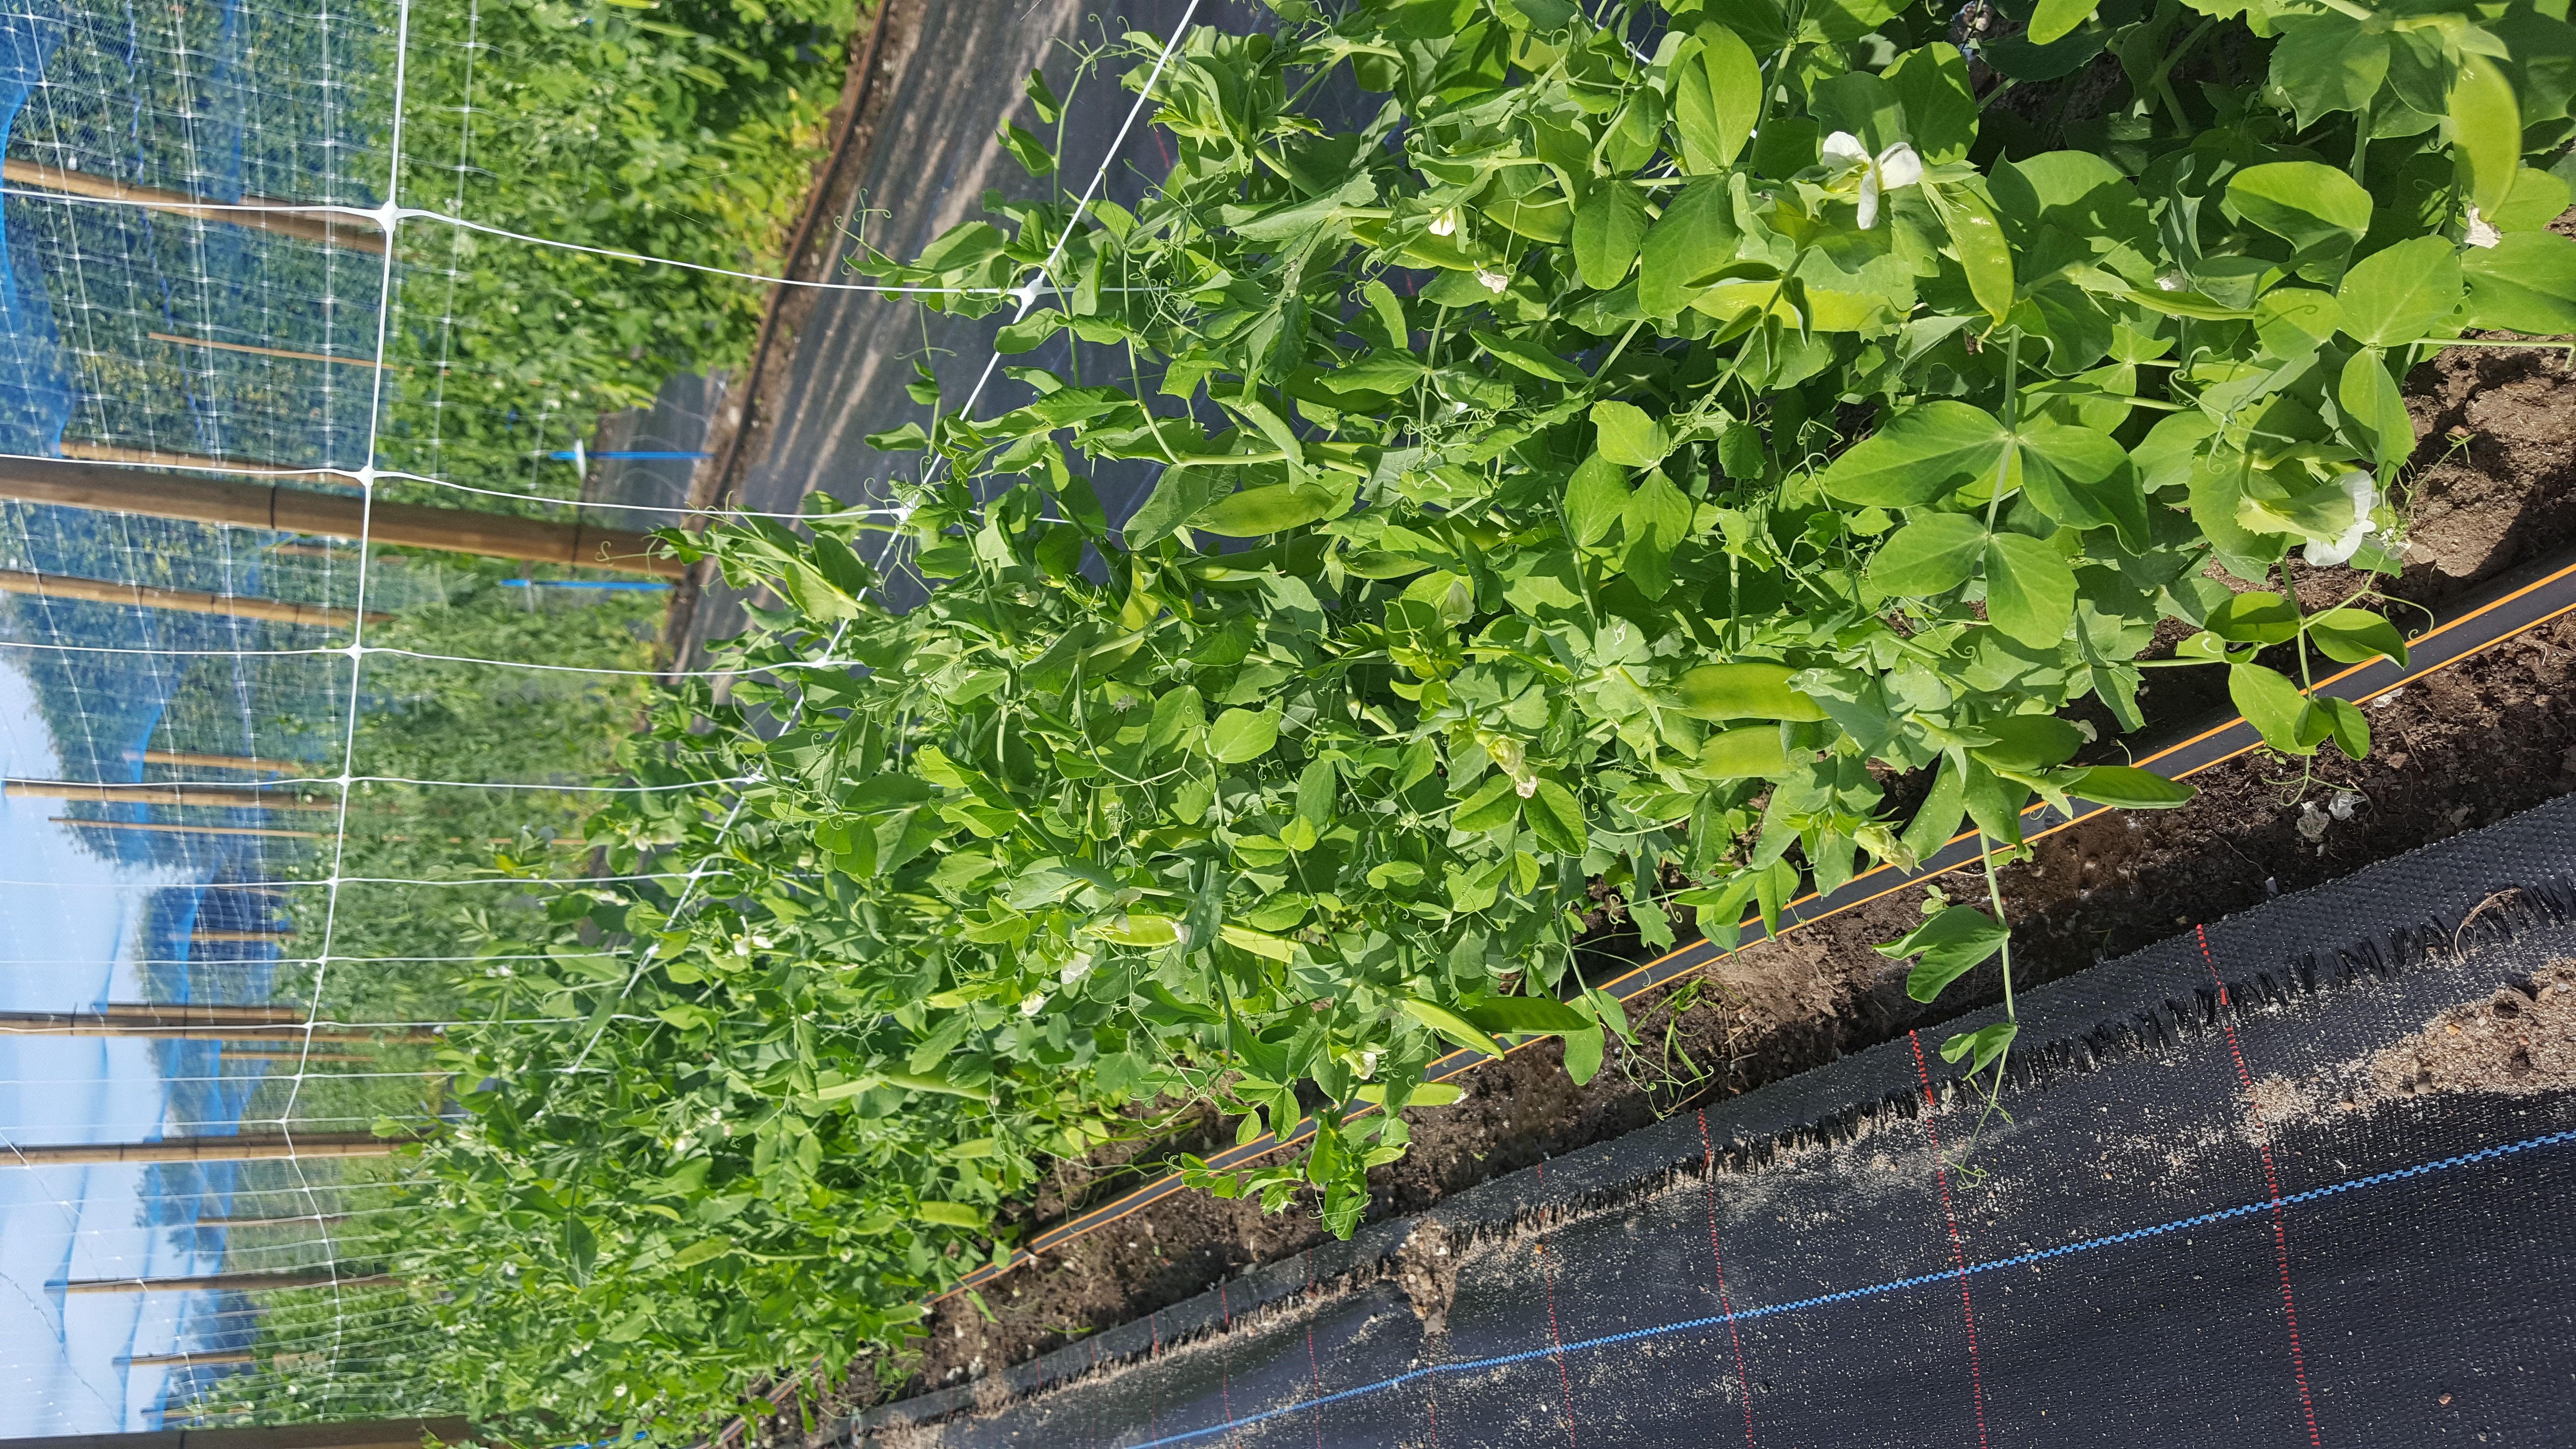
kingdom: Plantae
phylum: Tracheophyta
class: Magnoliopsida
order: Fabales
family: Fabaceae
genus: Lathyrus
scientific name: Lathyrus oleraceus
